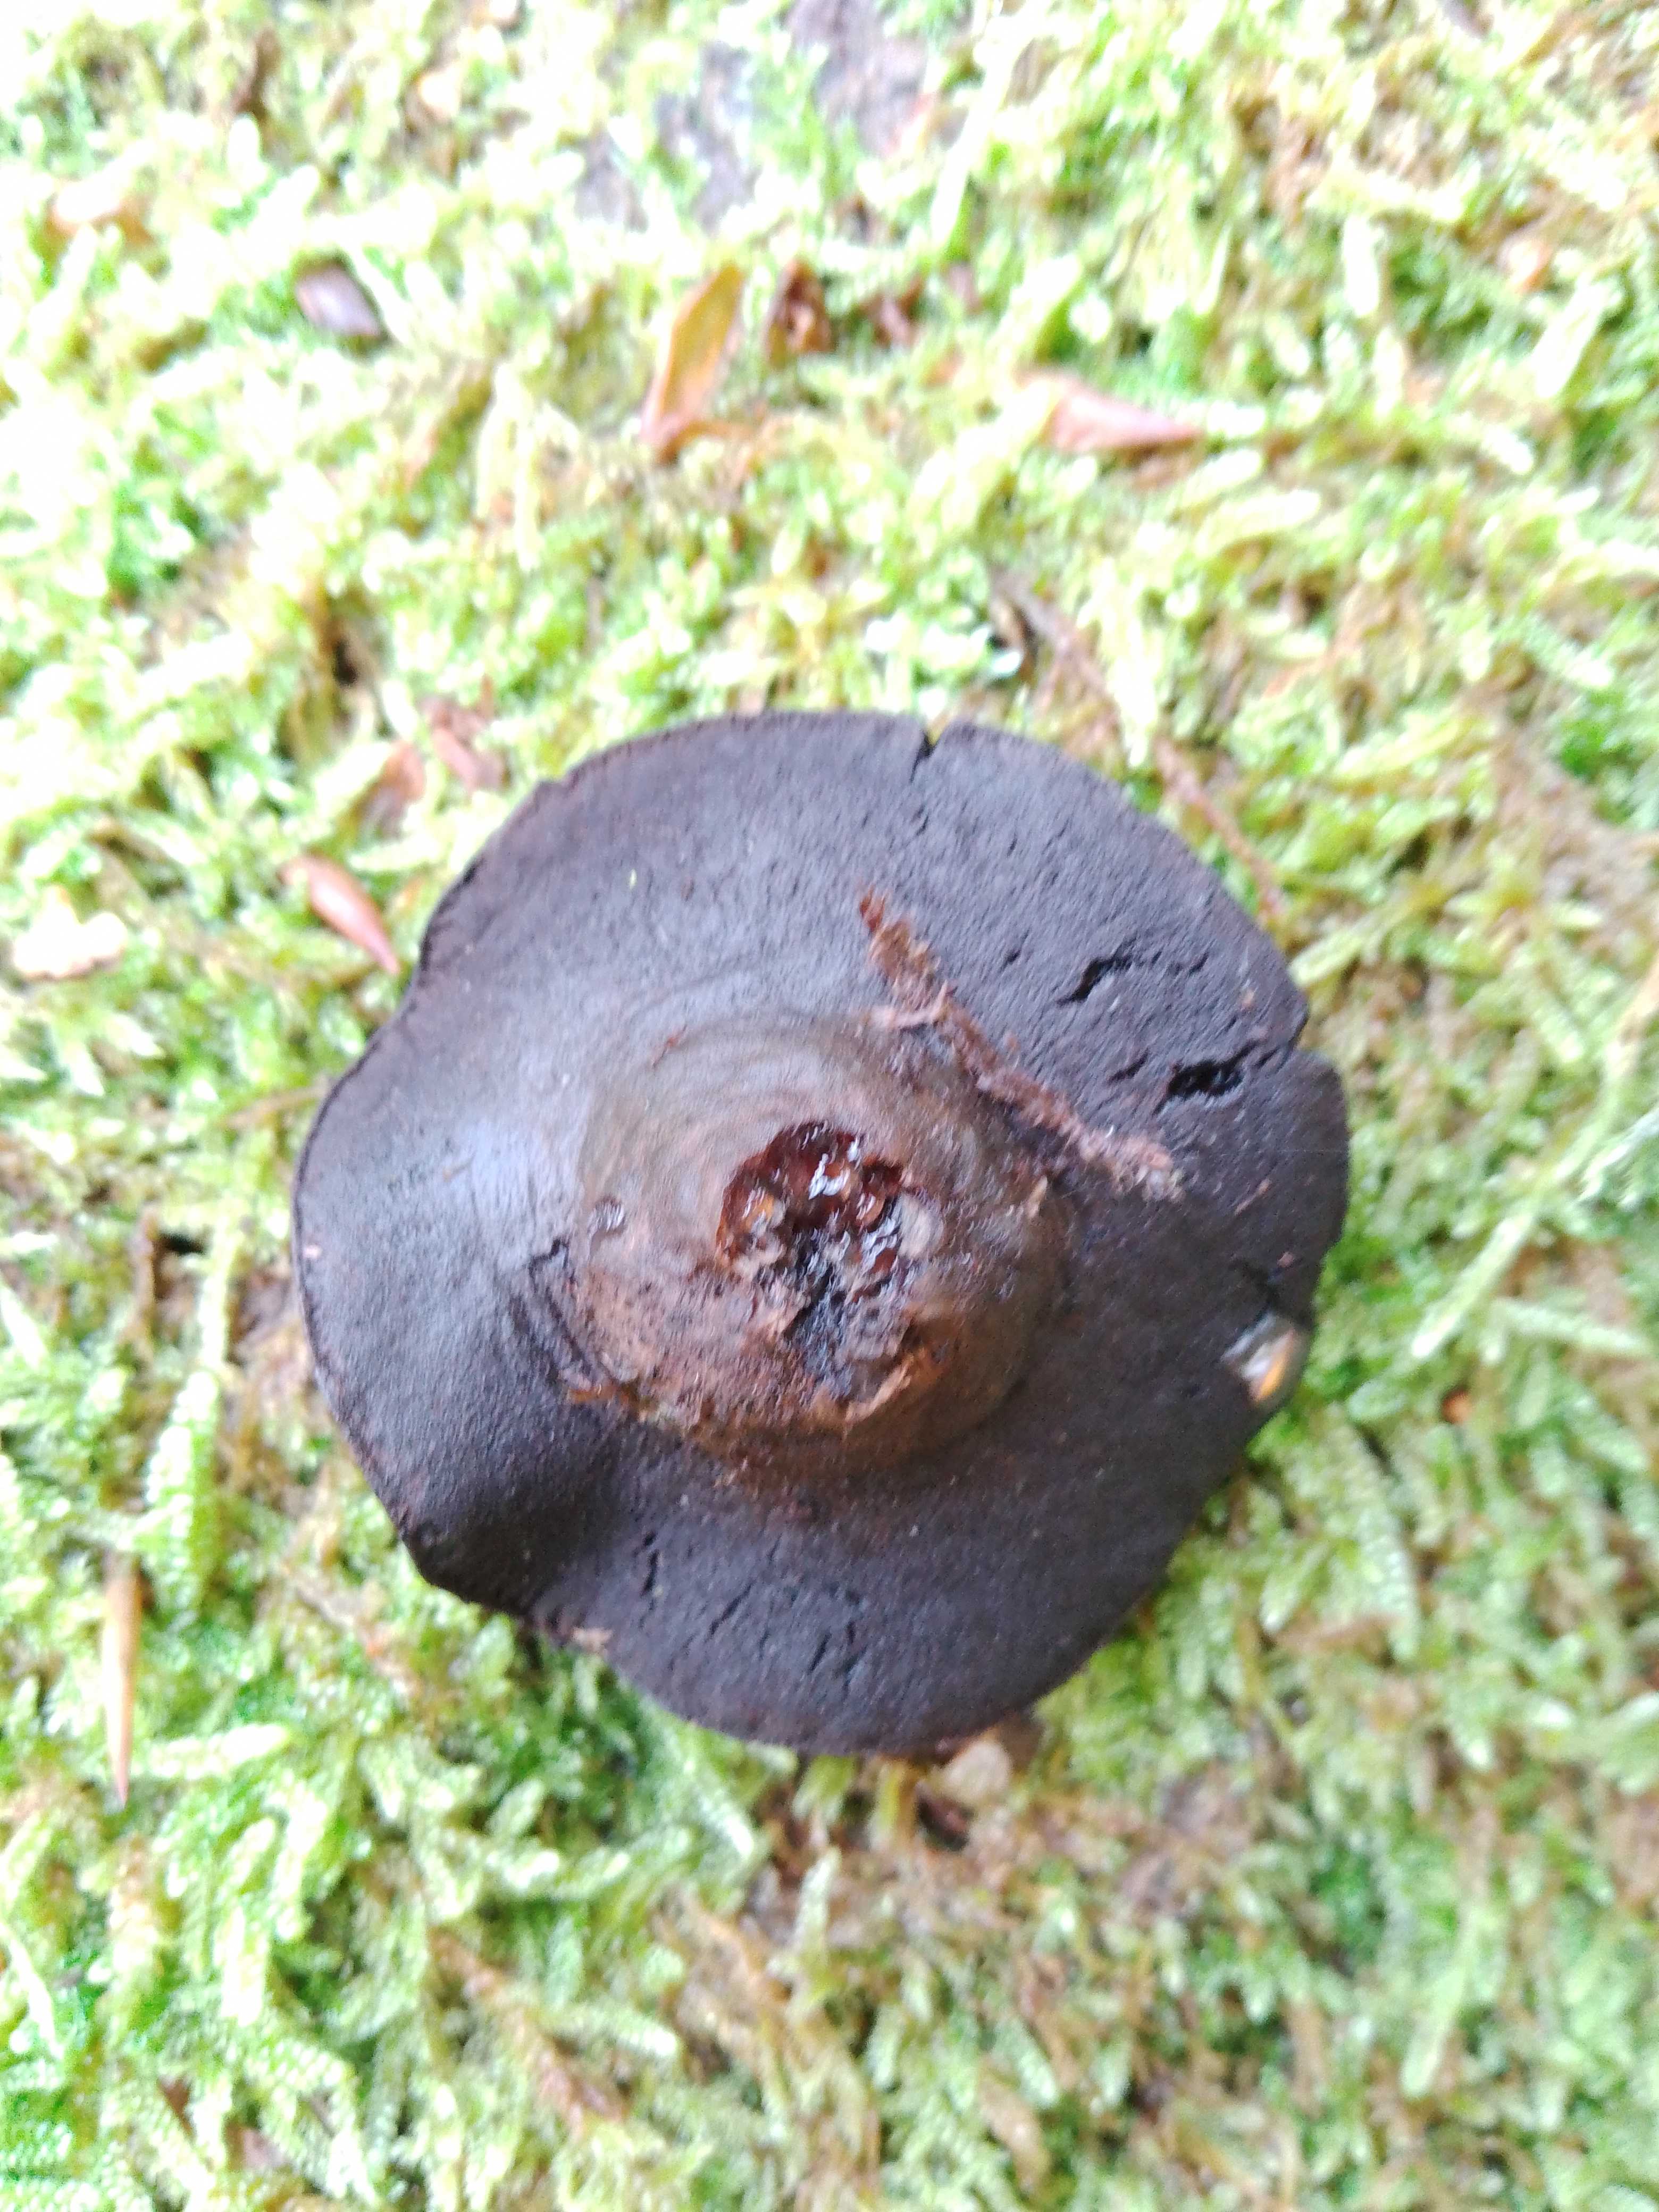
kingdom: Fungi
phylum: Ascomycota
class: Leotiomycetes
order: Phacidiales
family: Phacidiaceae
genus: Bulgaria
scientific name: Bulgaria inquinans
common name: afsmittende topsvamp
